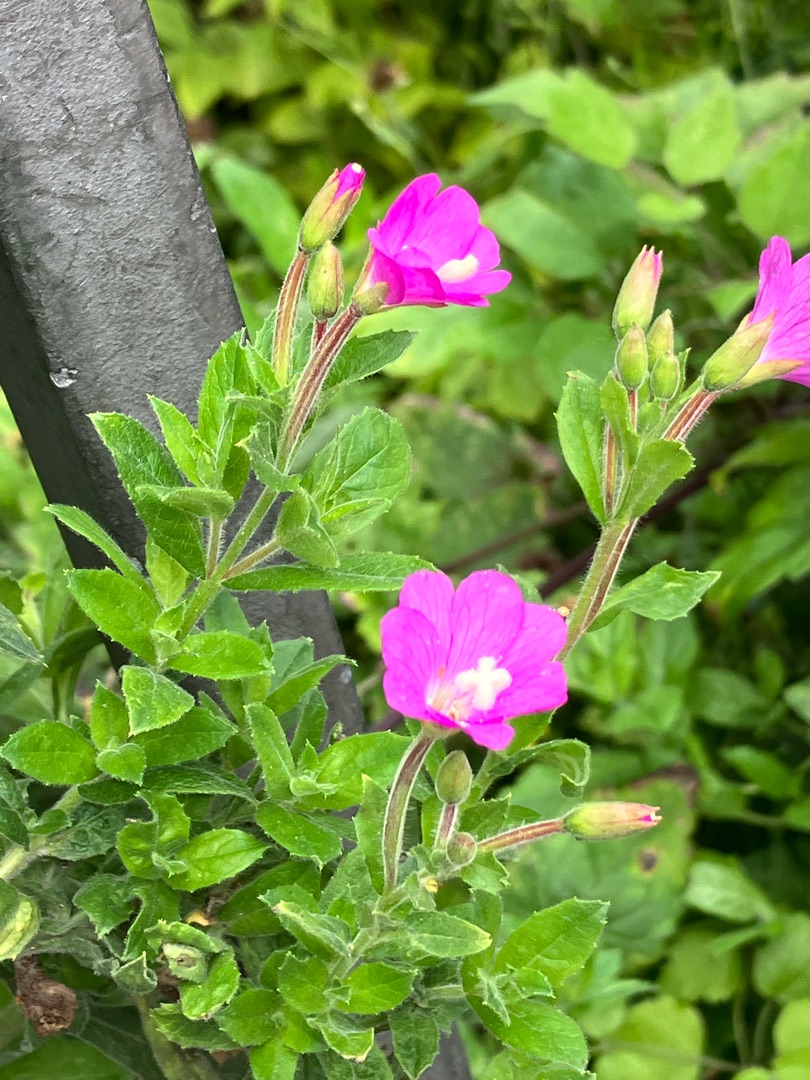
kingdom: Plantae
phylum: Tracheophyta
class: Magnoliopsida
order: Myrtales
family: Onagraceae
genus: Epilobium
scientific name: Epilobium hirsutum
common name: Lådden dueurt
